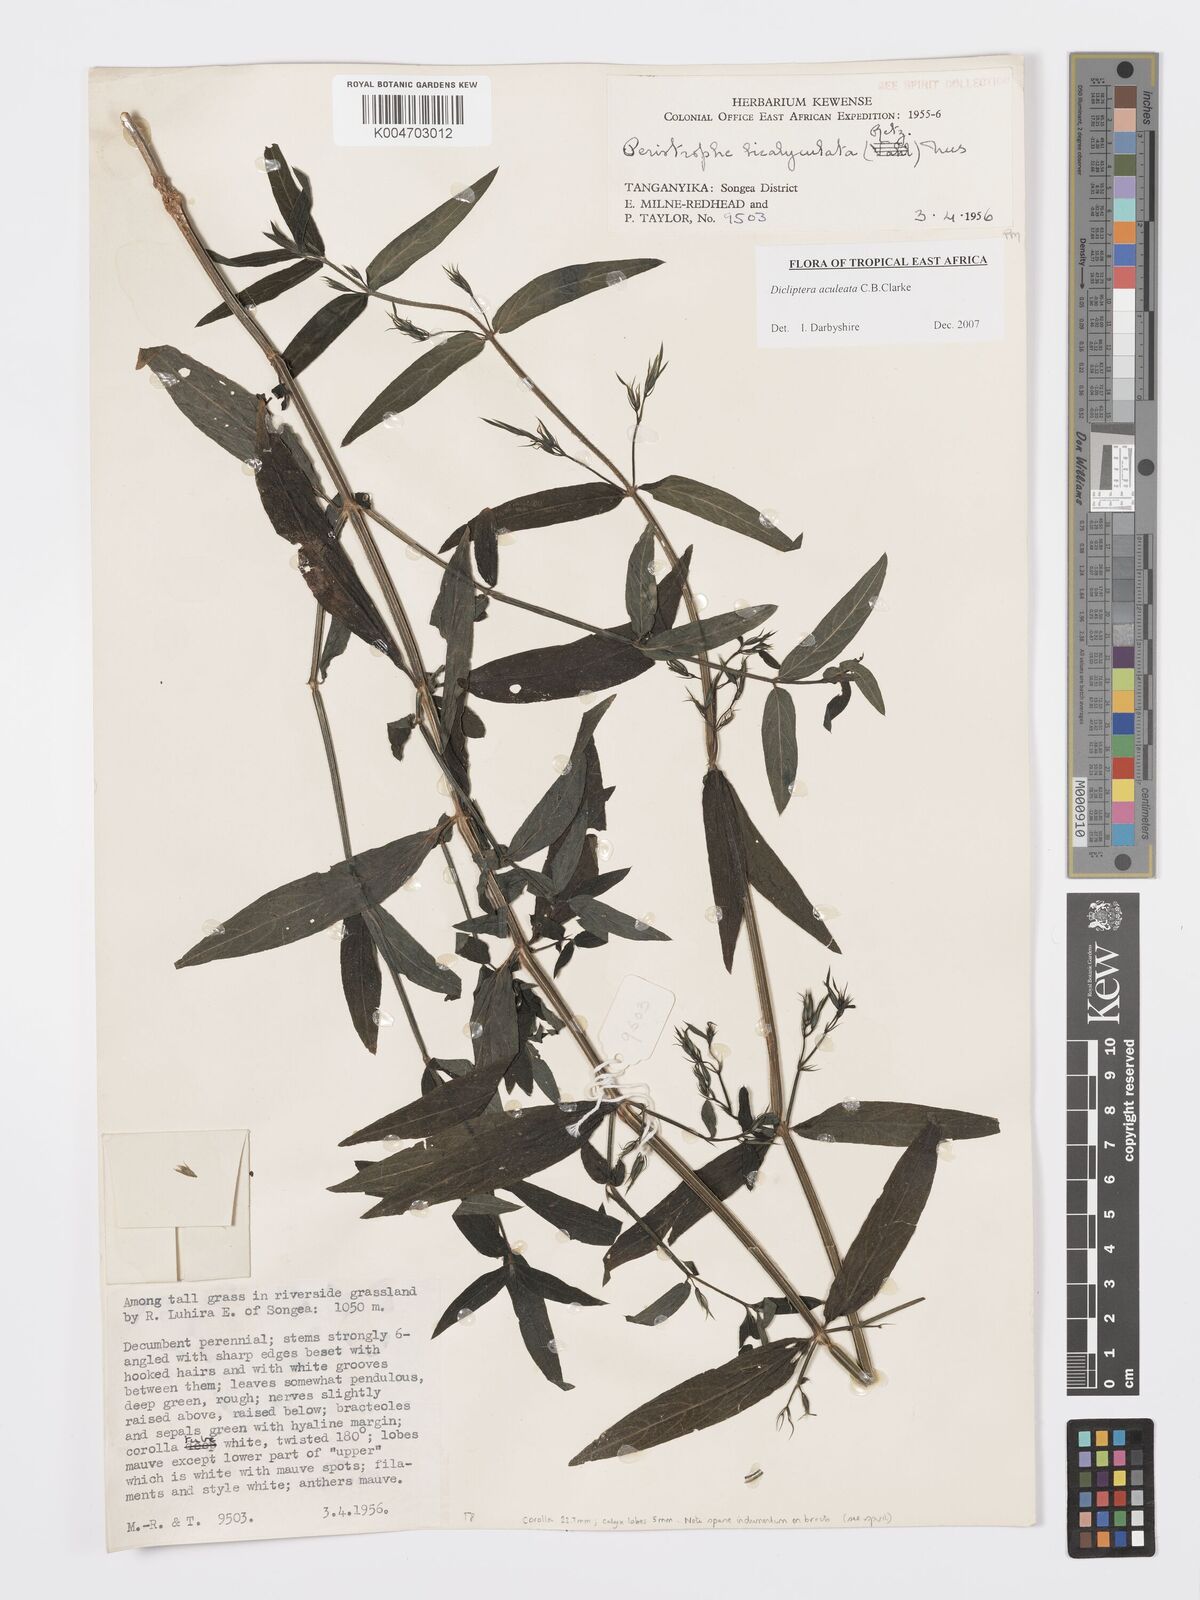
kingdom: Plantae
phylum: Tracheophyta
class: Magnoliopsida
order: Lamiales
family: Acanthaceae
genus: Dicliptera
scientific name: Dicliptera hensii
